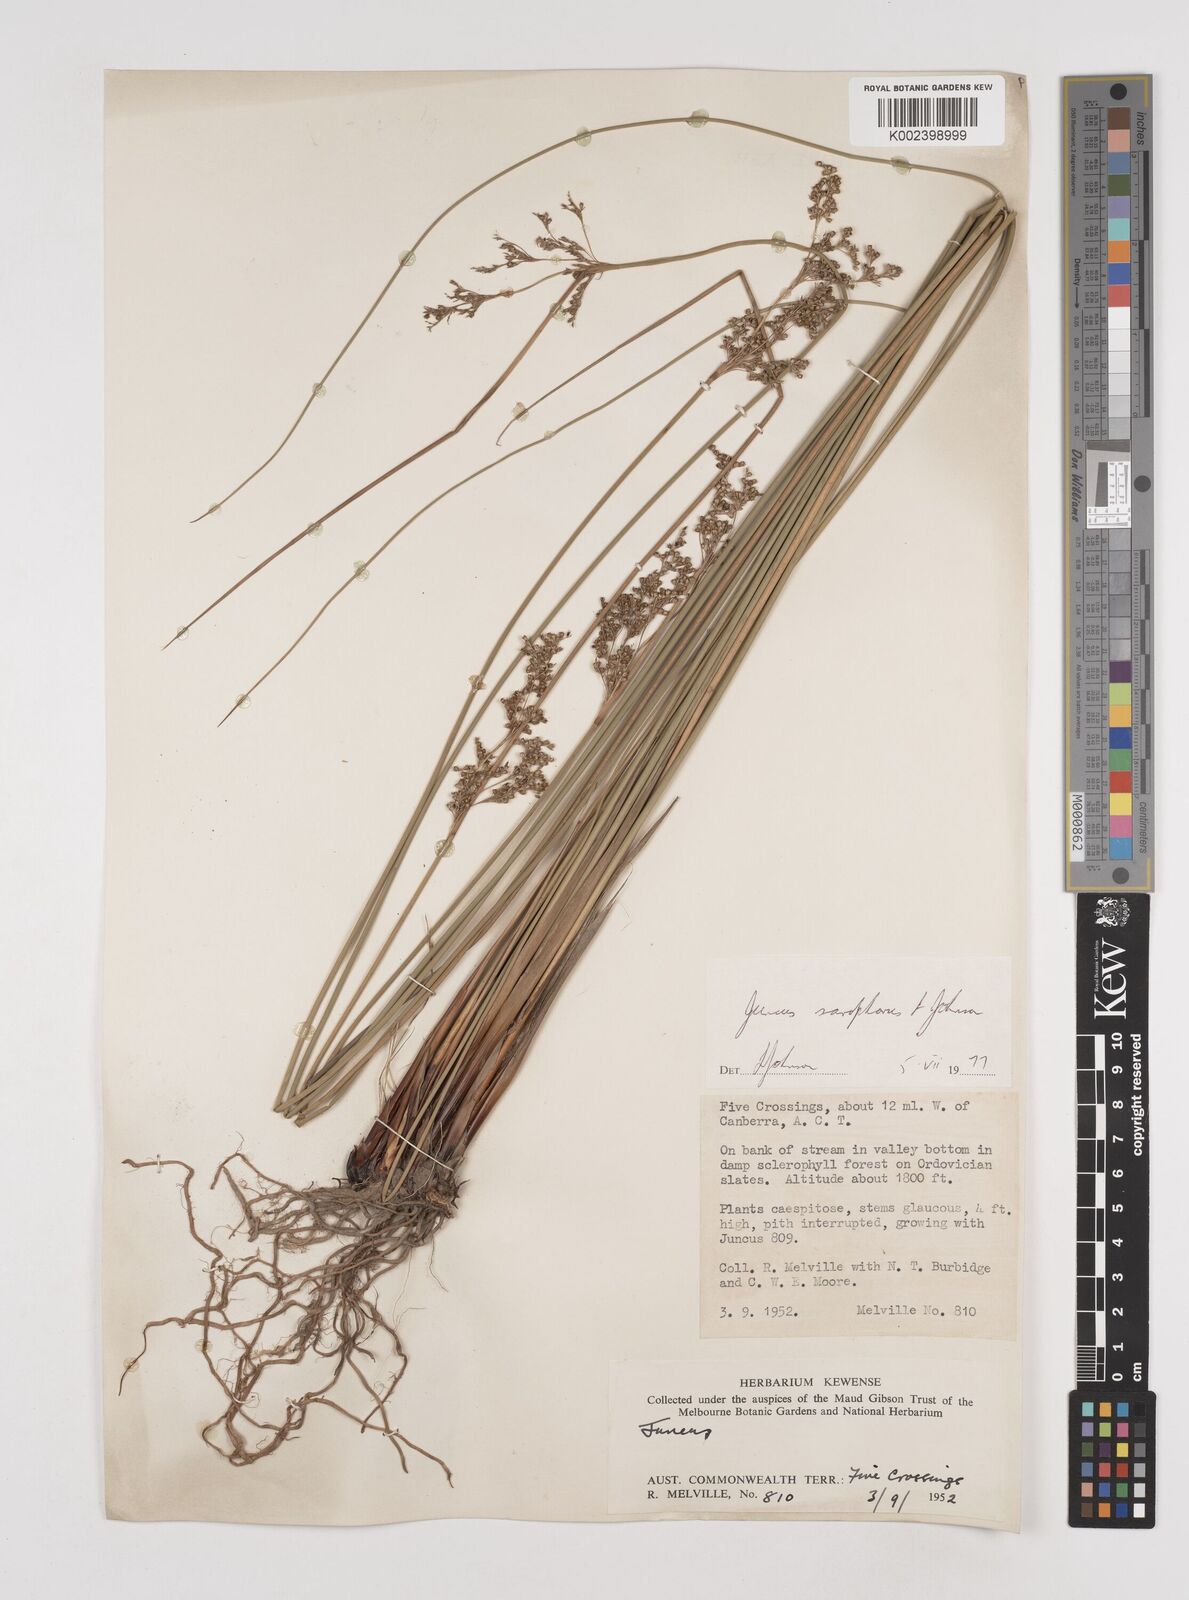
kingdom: Plantae
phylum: Tracheophyta
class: Liliopsida
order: Poales
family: Juncaceae
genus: Juncus
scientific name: Juncus sarophorus
